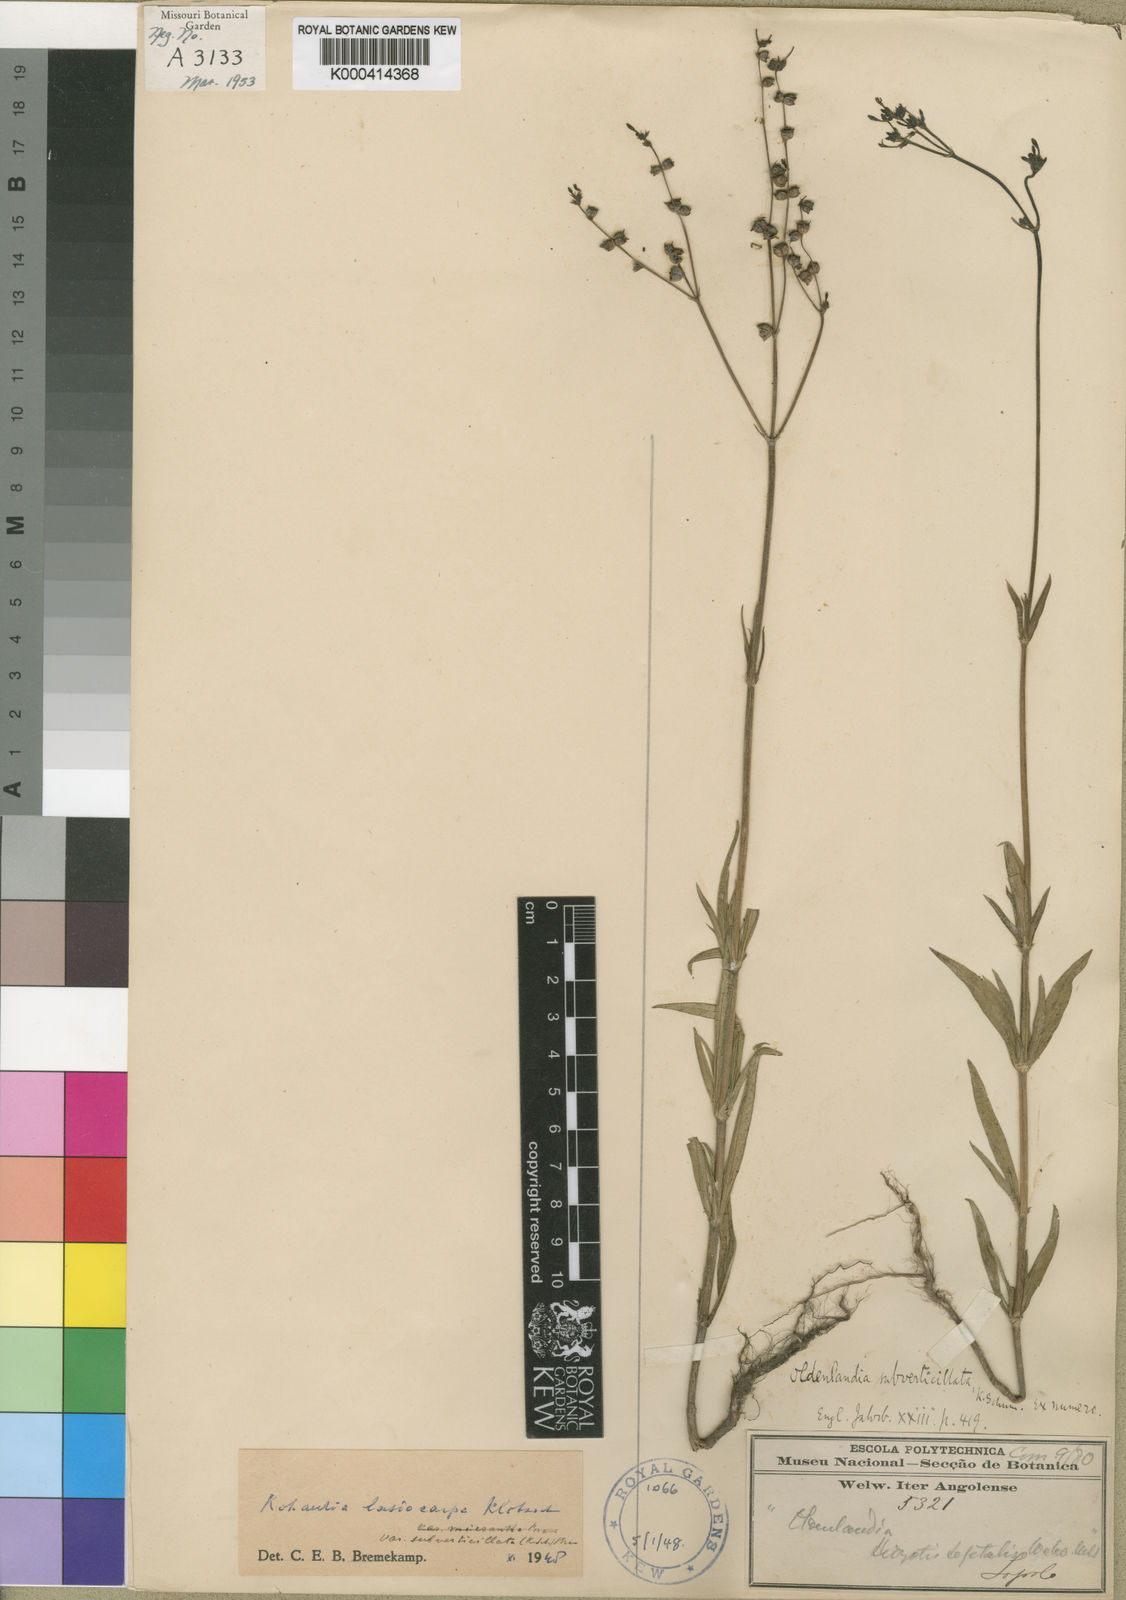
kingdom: Plantae
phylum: Tracheophyta
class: Magnoliopsida
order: Gentianales
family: Rubiaceae
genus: Kohautia
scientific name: Kohautia subverticillata
